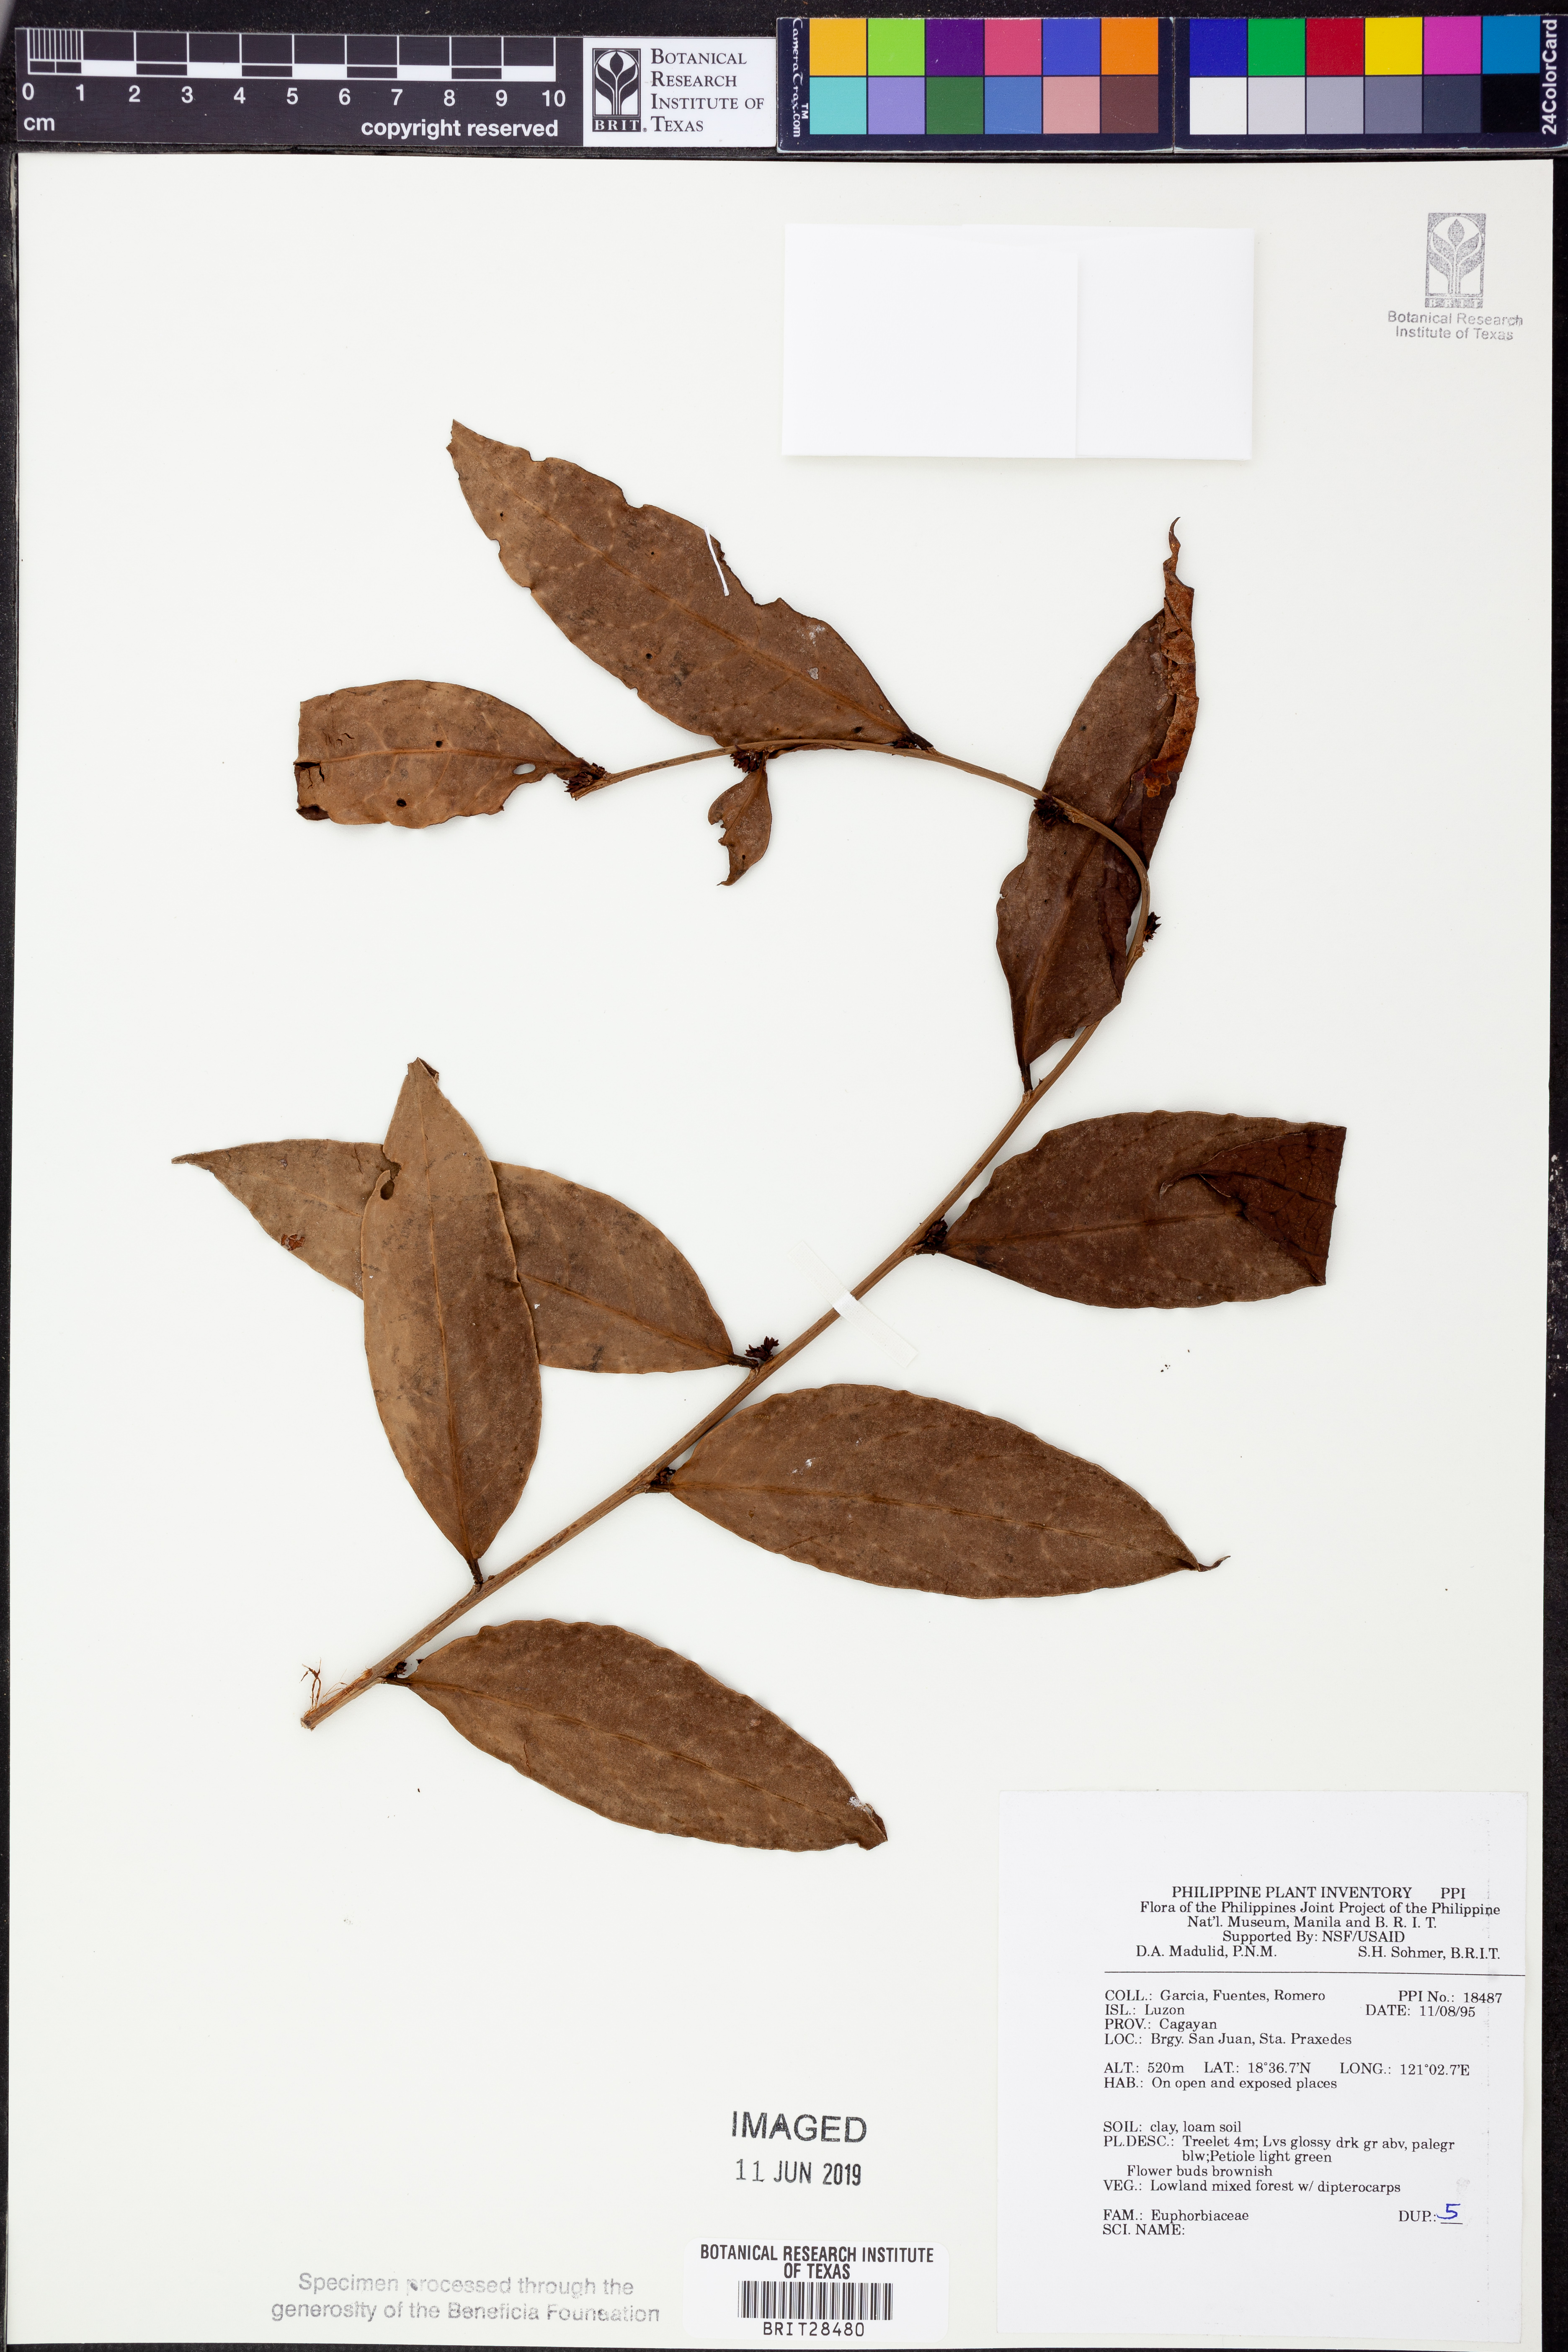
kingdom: Plantae
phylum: Tracheophyta
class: Magnoliopsida
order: Malpighiales
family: Euphorbiaceae
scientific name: Euphorbiaceae
